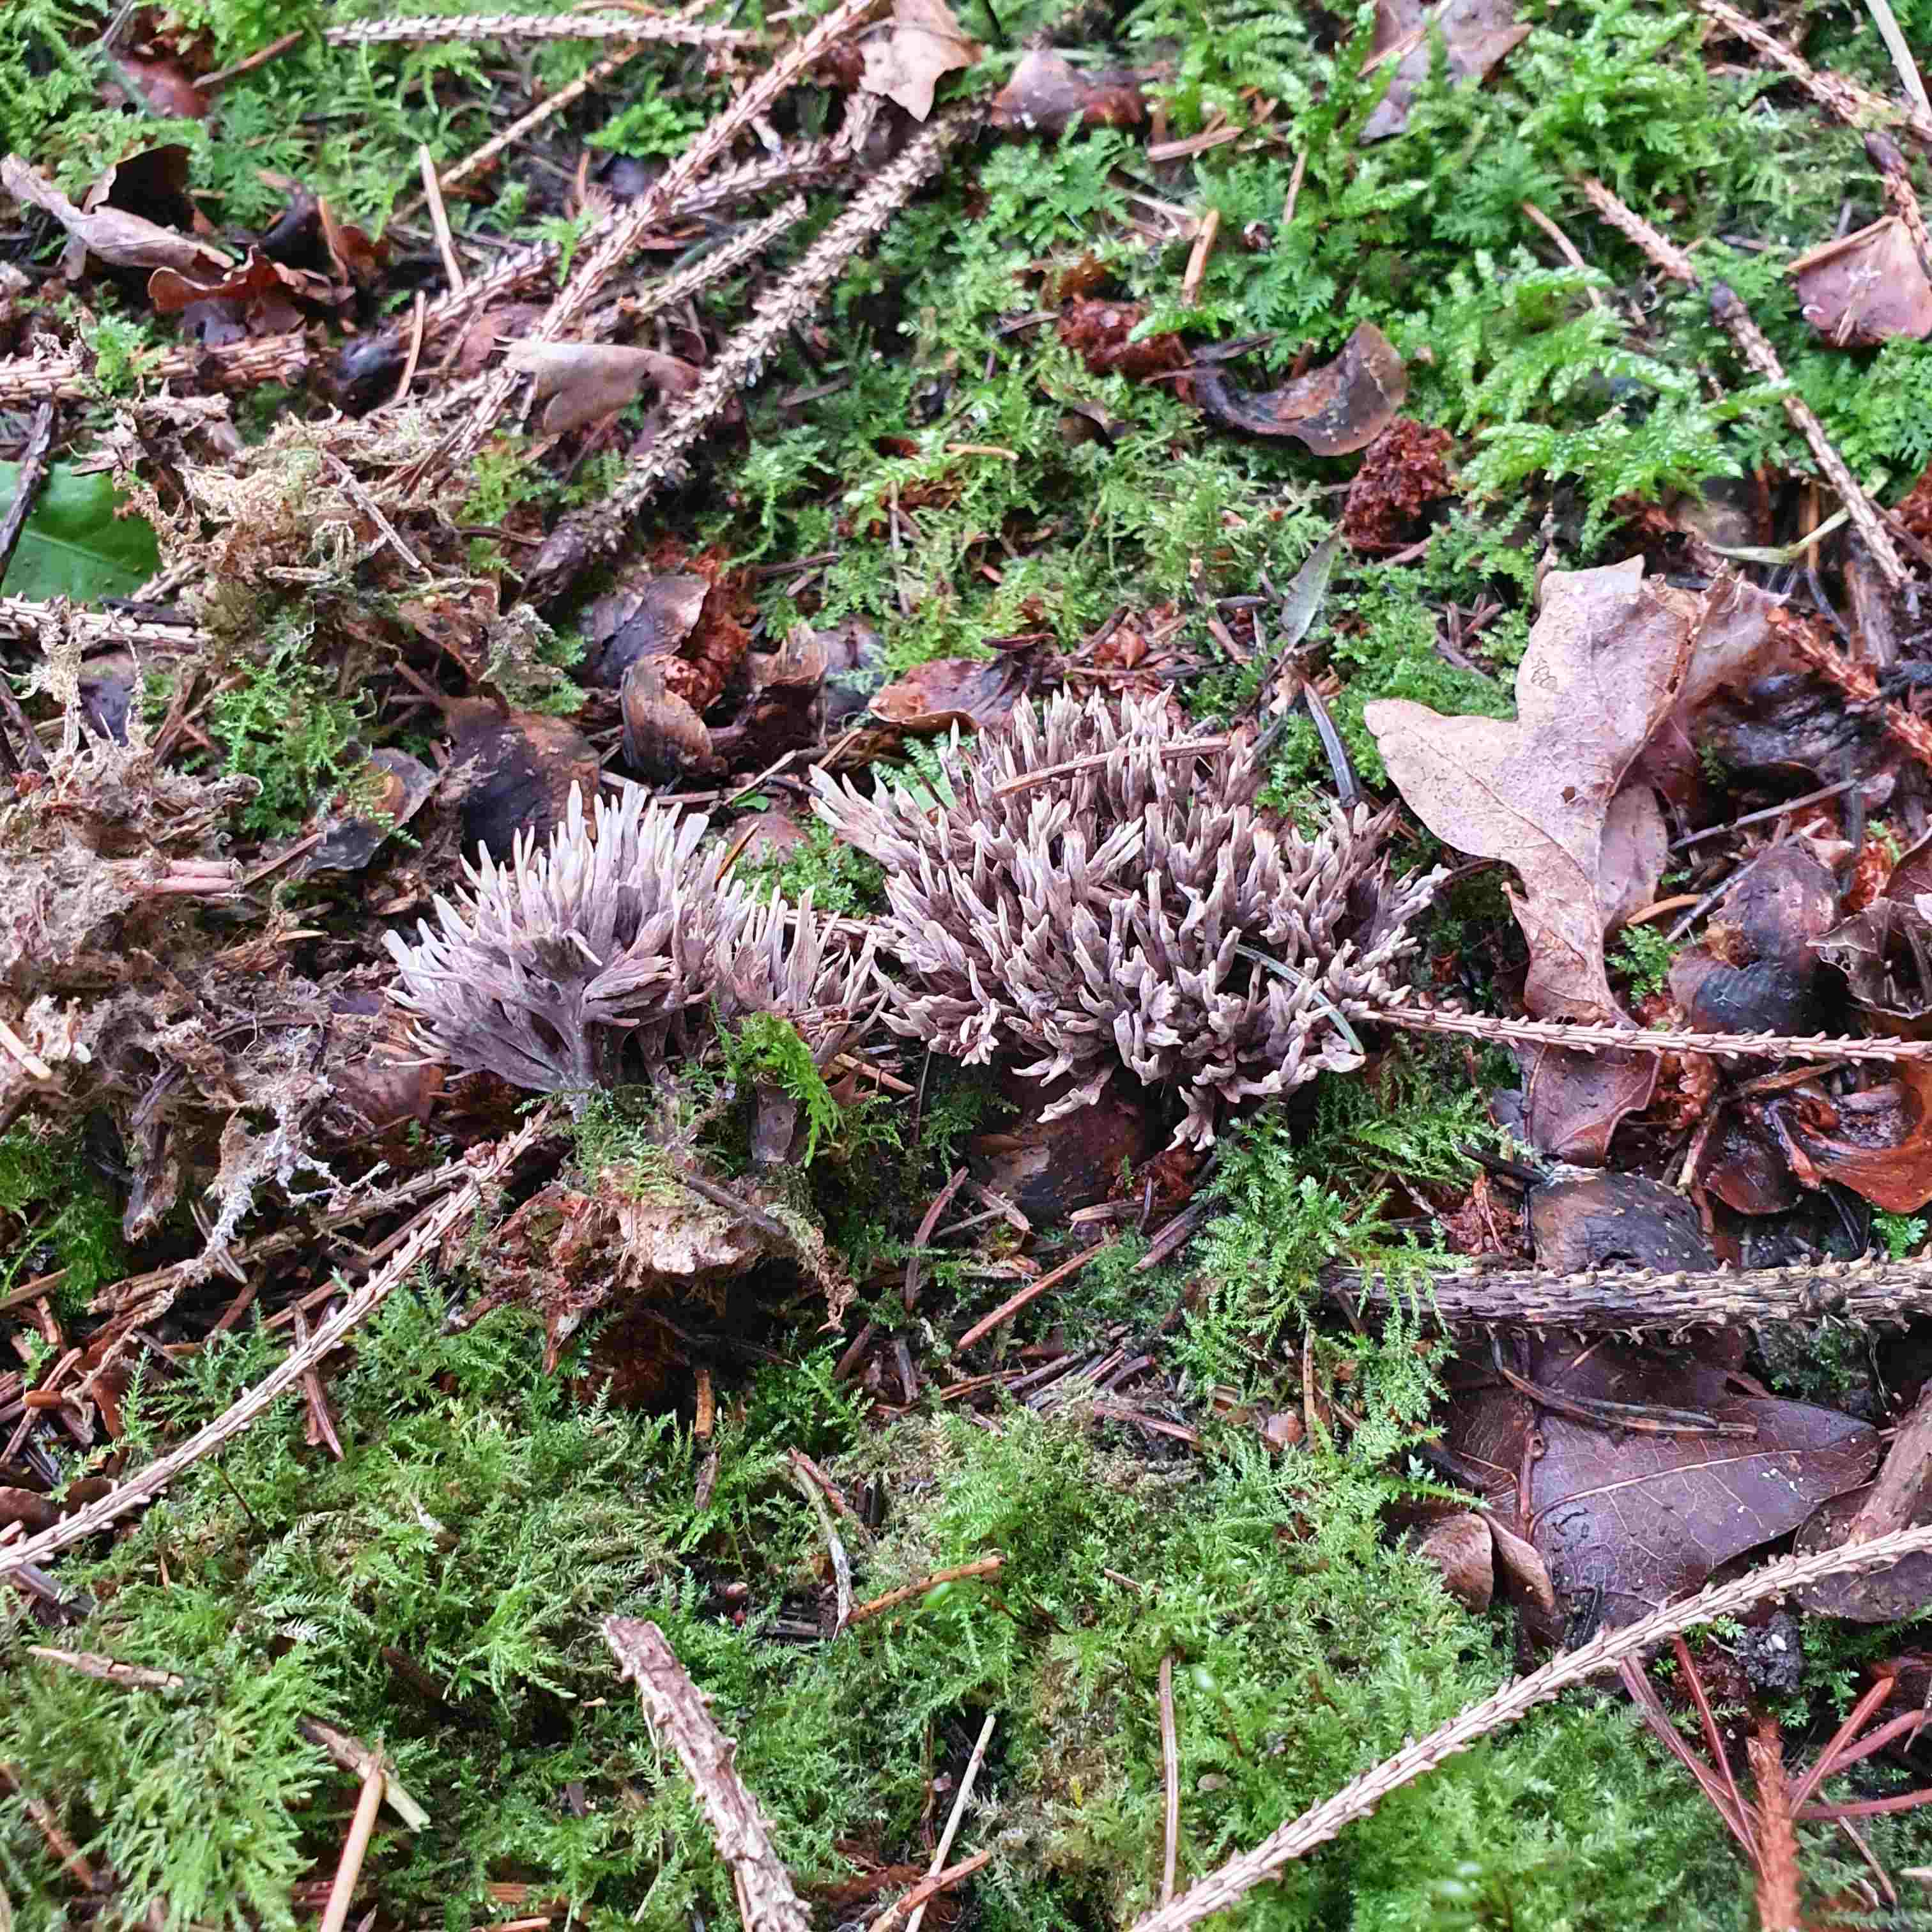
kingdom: Fungi
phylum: Basidiomycota
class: Agaricomycetes
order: Thelephorales
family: Thelephoraceae
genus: Thelephora
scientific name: Thelephora palmata
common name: grenet frynsesvamp
